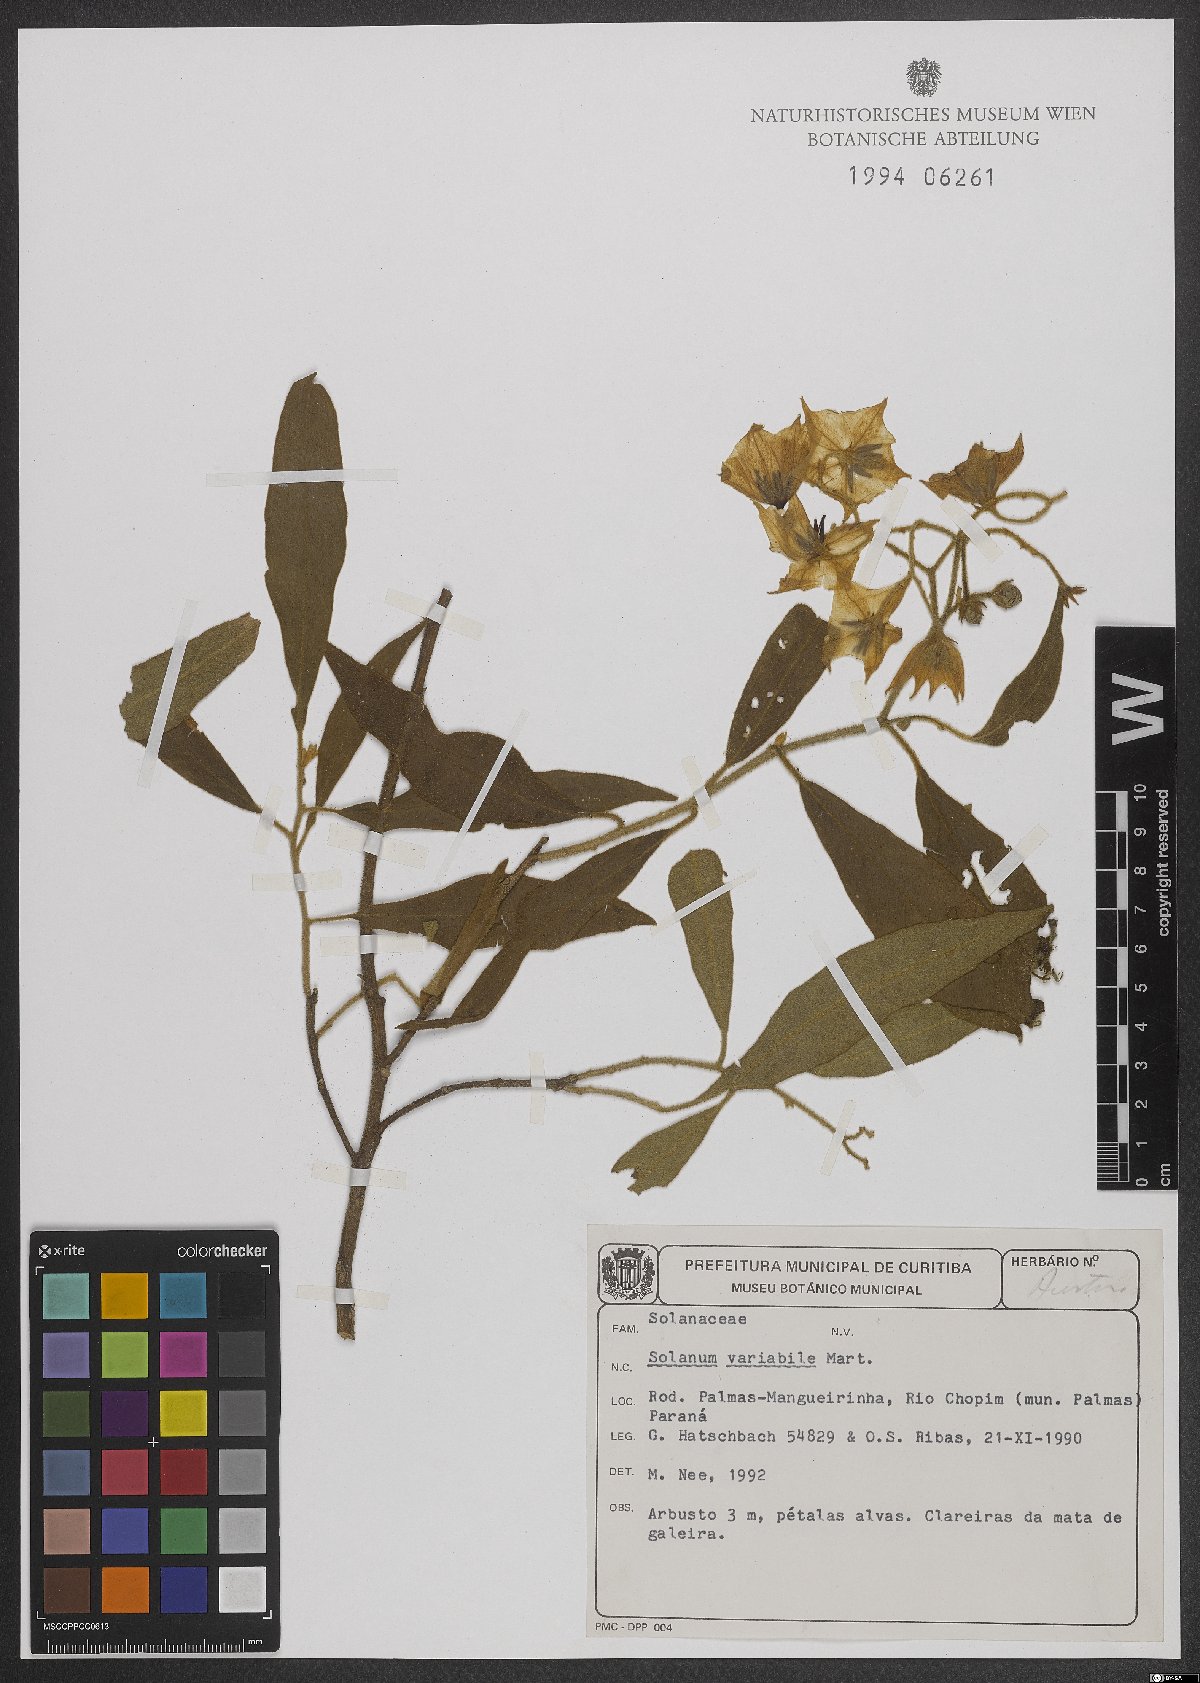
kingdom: Plantae
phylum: Tracheophyta
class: Magnoliopsida
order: Solanales
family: Solanaceae
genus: Solanum
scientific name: Solanum variabile
